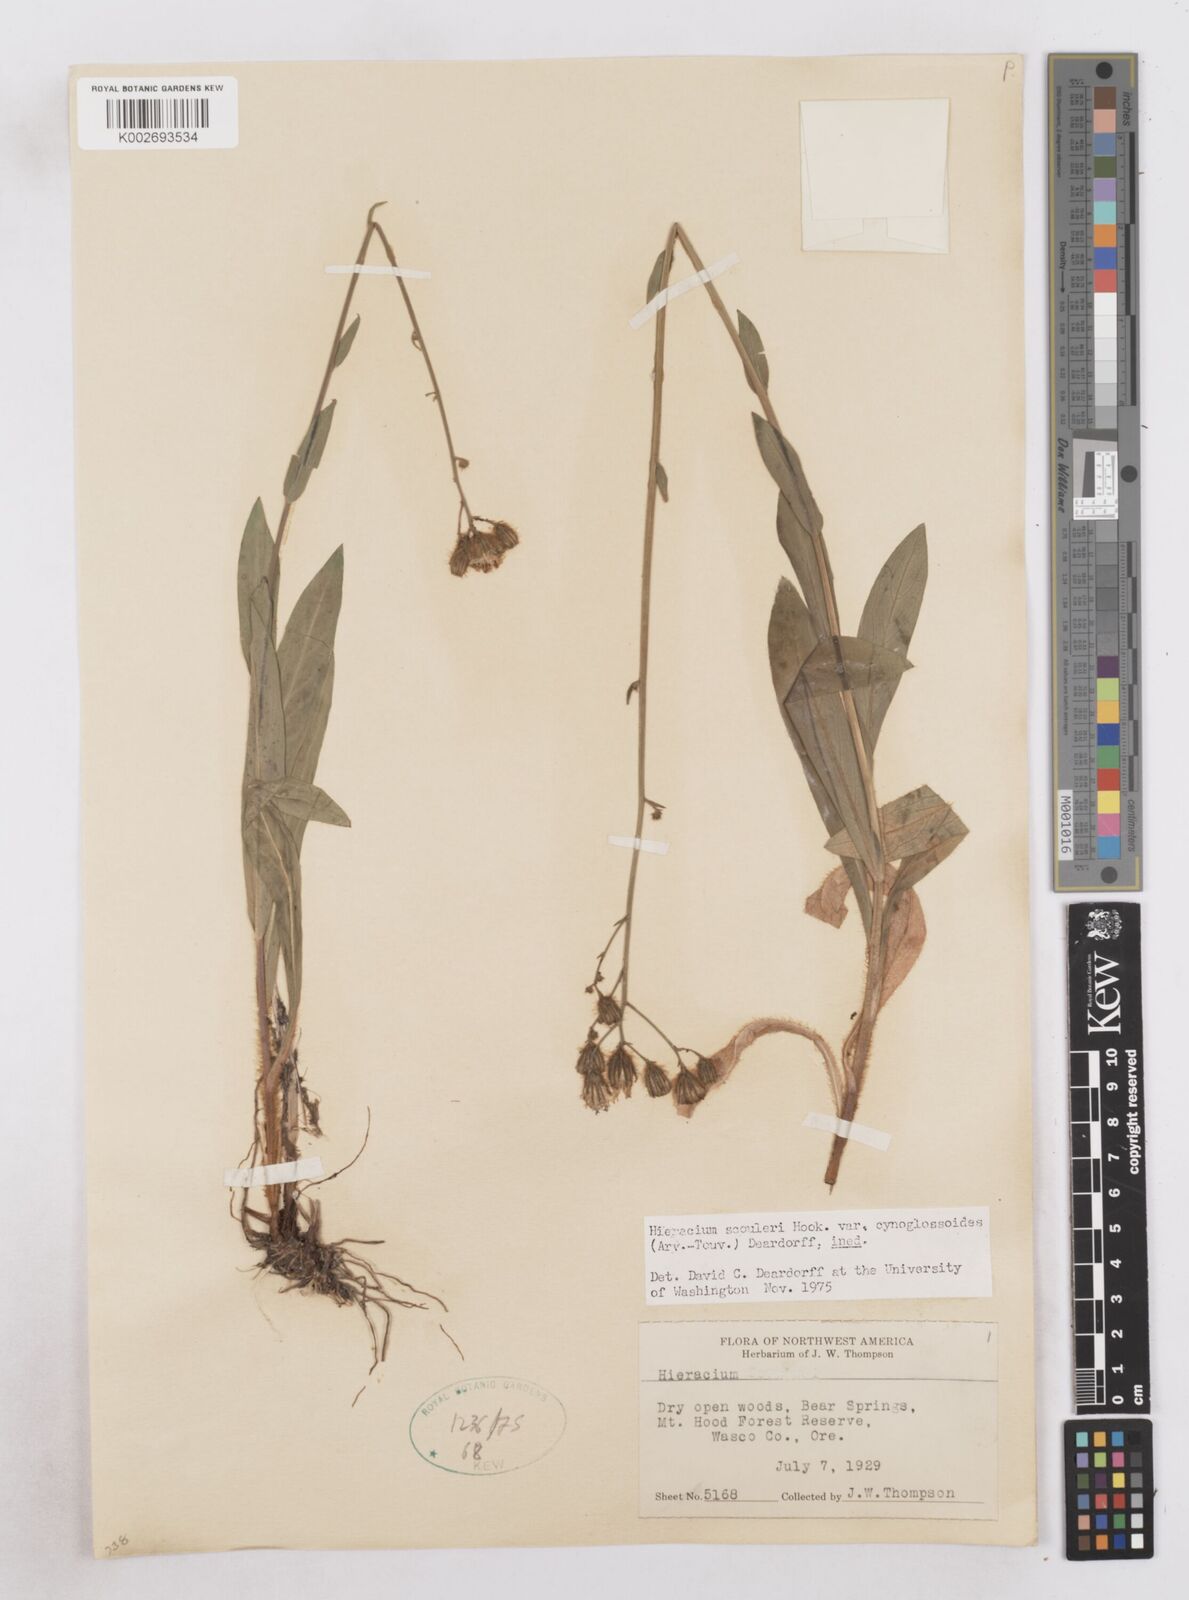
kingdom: Plantae
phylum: Tracheophyta
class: Magnoliopsida
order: Asterales
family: Asteraceae
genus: Hieracium
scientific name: Hieracium scouleri
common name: Hound's-tongue hawkweed
